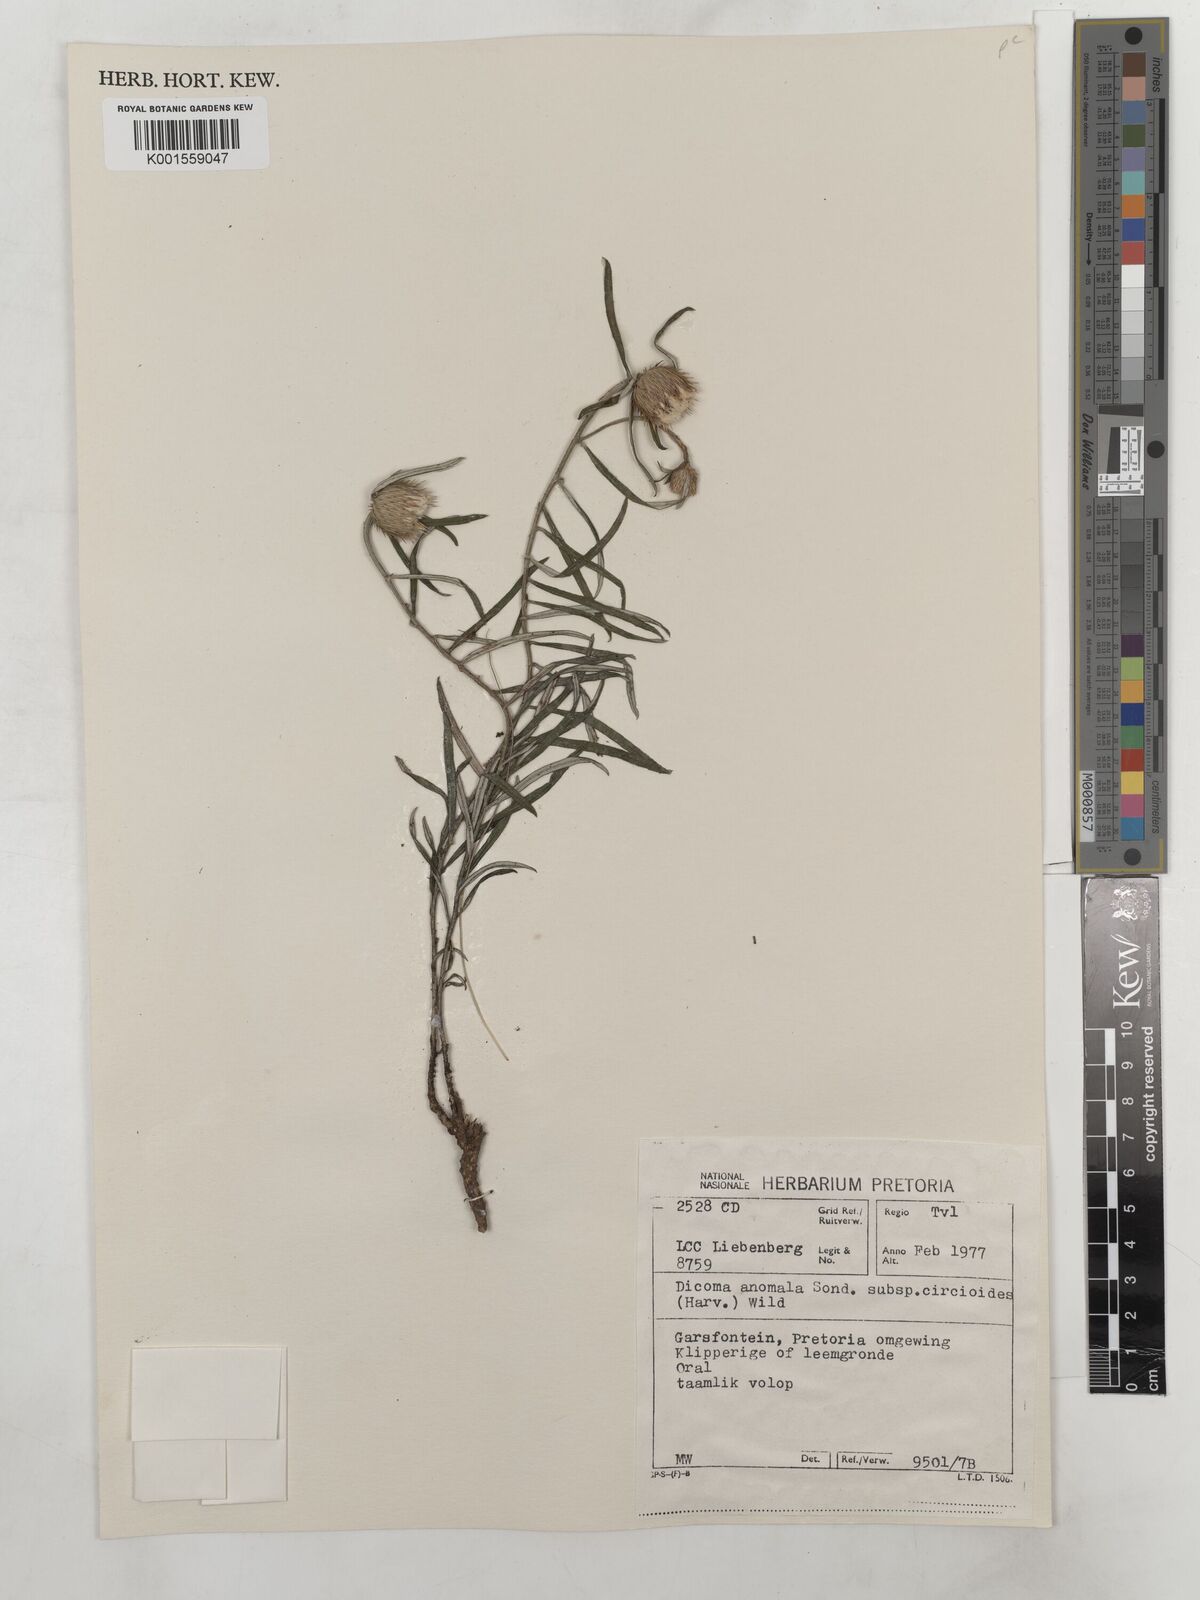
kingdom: Plantae
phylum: Tracheophyta
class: Magnoliopsida
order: Asterales
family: Asteraceae
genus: Dicoma
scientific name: Dicoma anomala
